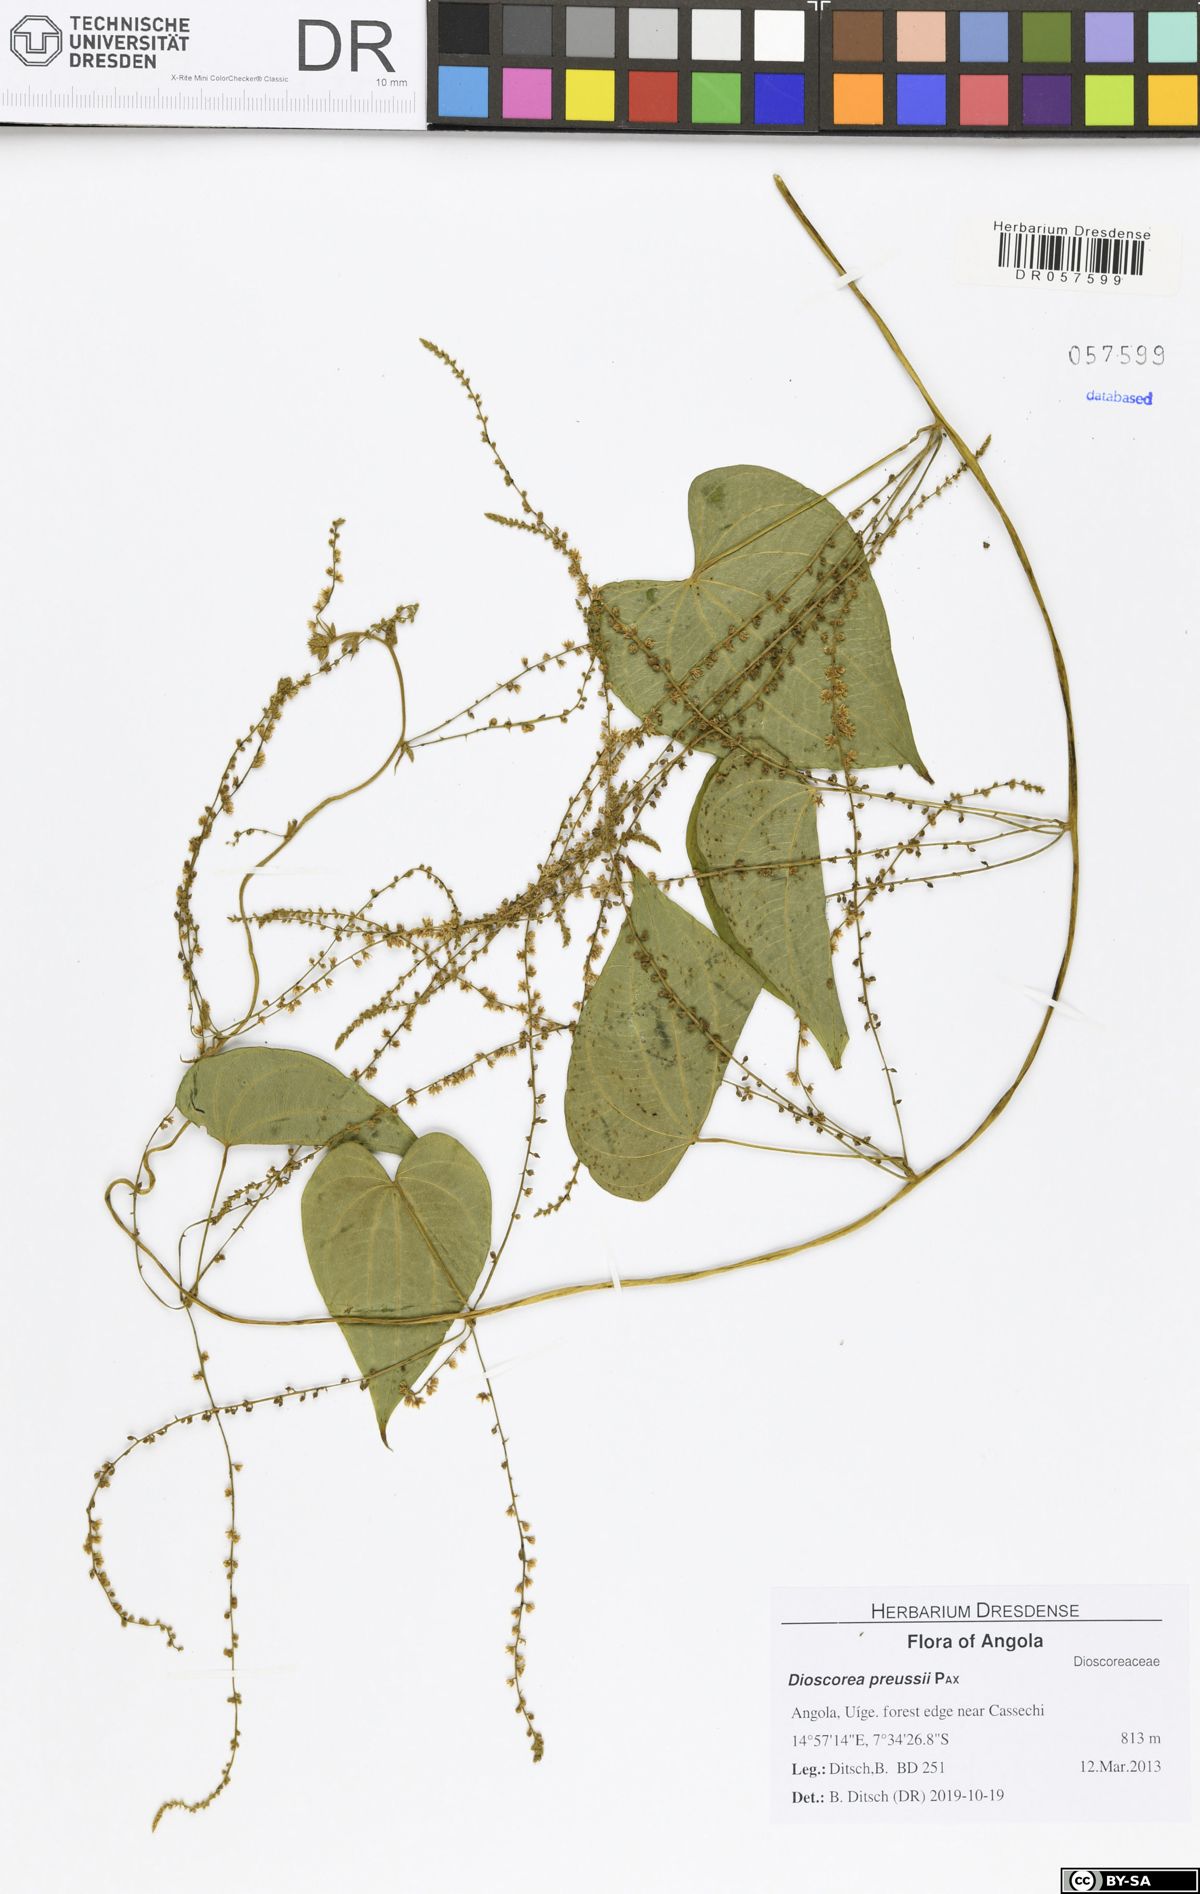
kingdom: Plantae
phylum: Tracheophyta
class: Liliopsida
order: Dioscoreales
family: Dioscoreaceae
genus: Dioscorea
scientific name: Dioscorea preussii
